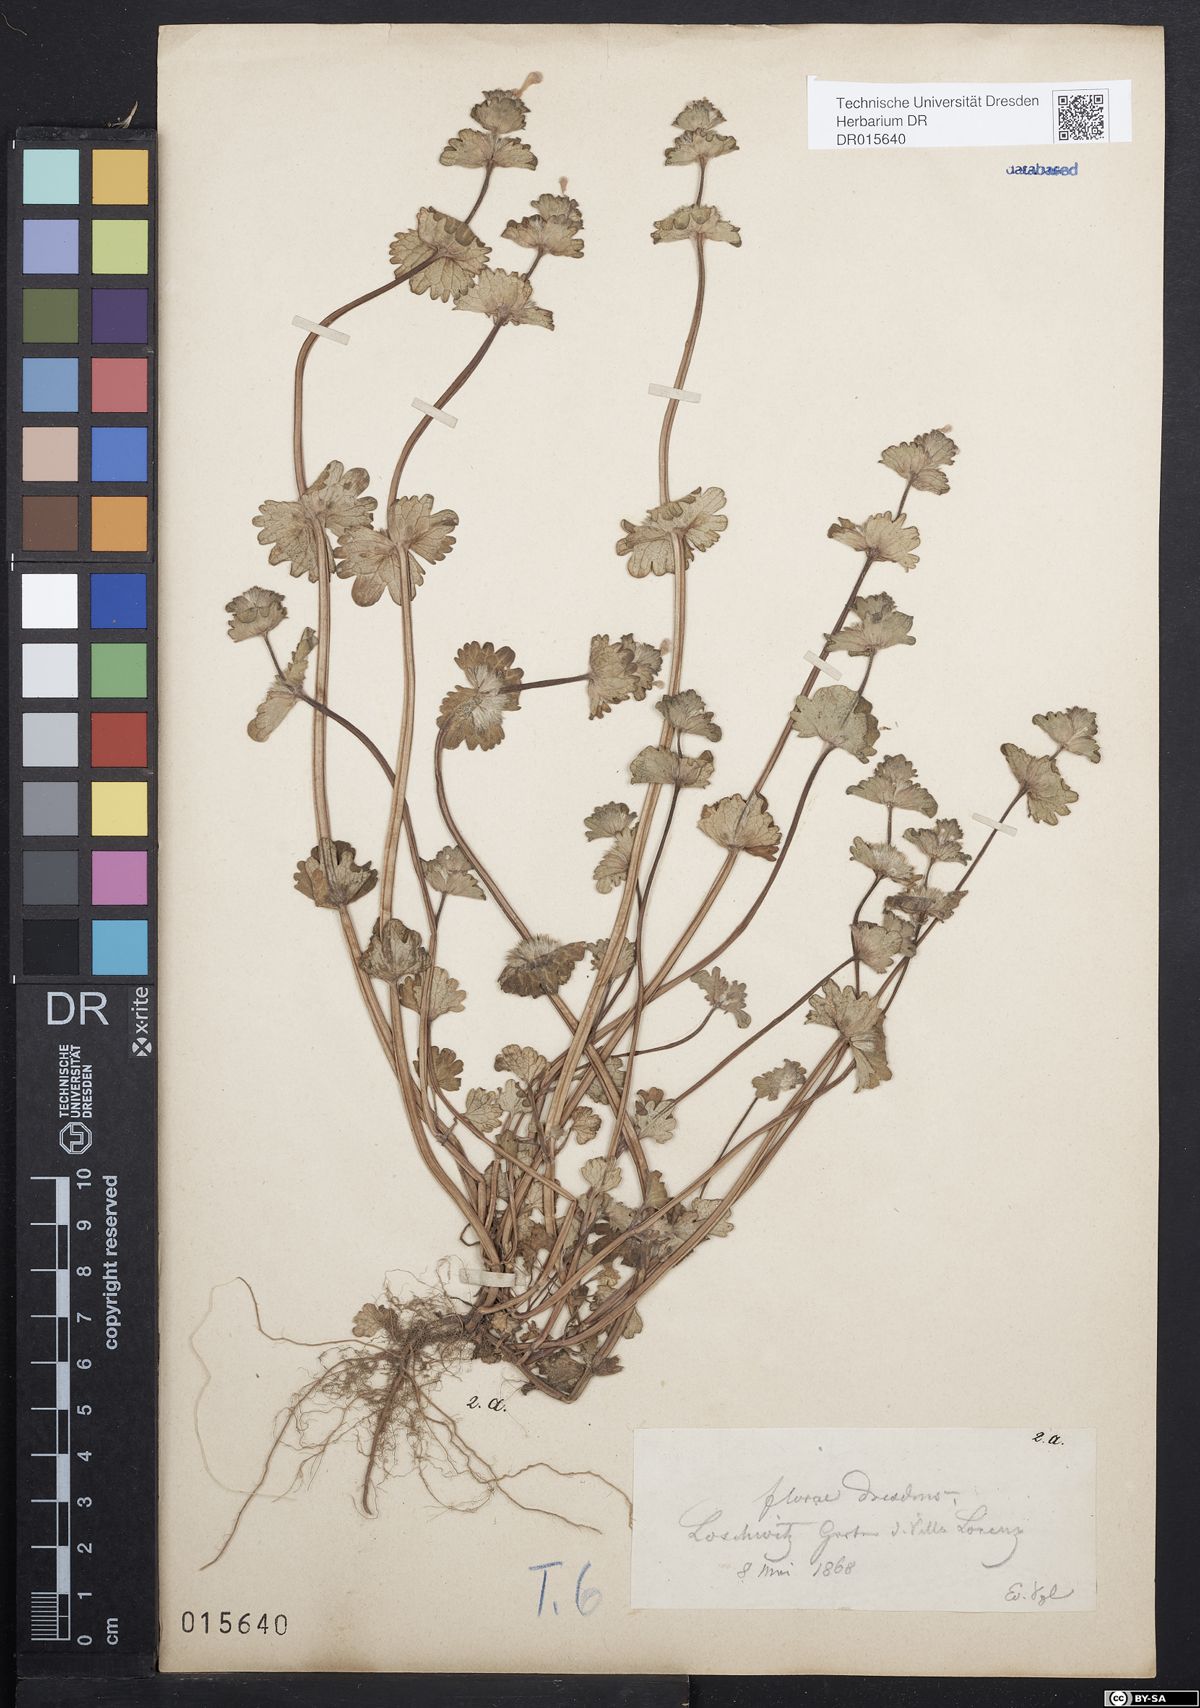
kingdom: Plantae
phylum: Tracheophyta
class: Magnoliopsida
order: Lamiales
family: Lamiaceae
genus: Lamium
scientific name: Lamium amplexicaule
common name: Henbit dead-nettle
